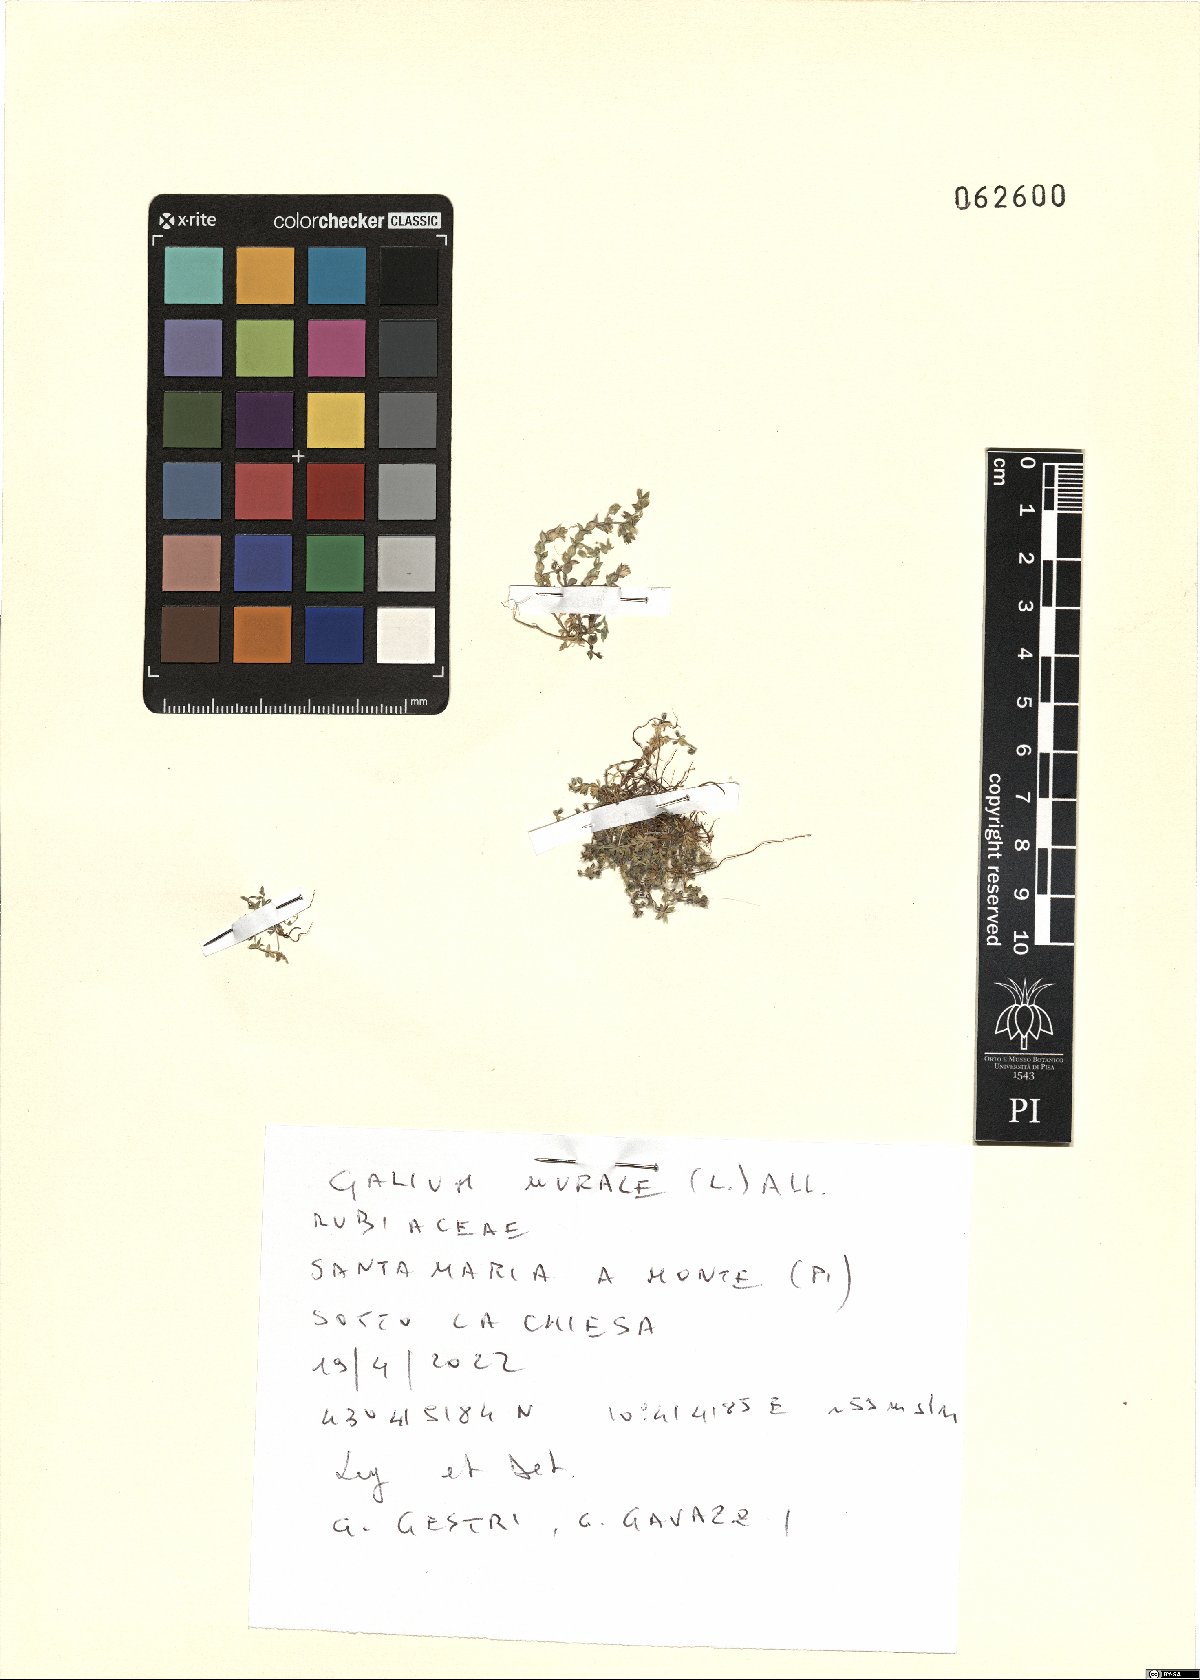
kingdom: Plantae
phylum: Tracheophyta
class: Magnoliopsida
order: Gentianales
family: Rubiaceae
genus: Galium
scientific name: Galium murale
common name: Yellow wall bedstraw
